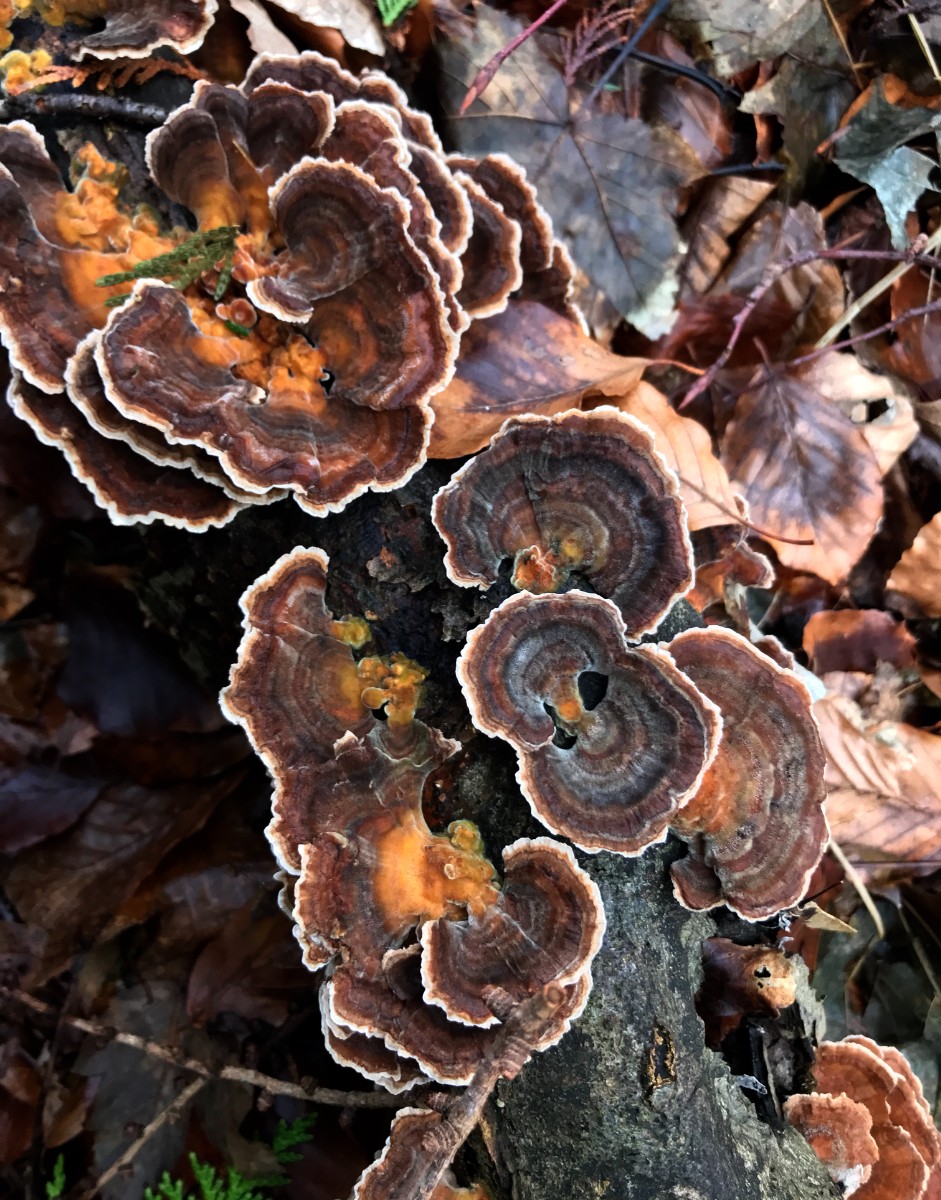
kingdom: Fungi
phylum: Basidiomycota
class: Agaricomycetes
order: Polyporales
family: Polyporaceae
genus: Trametes
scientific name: Trametes versicolor
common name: broget læderporesvamp
